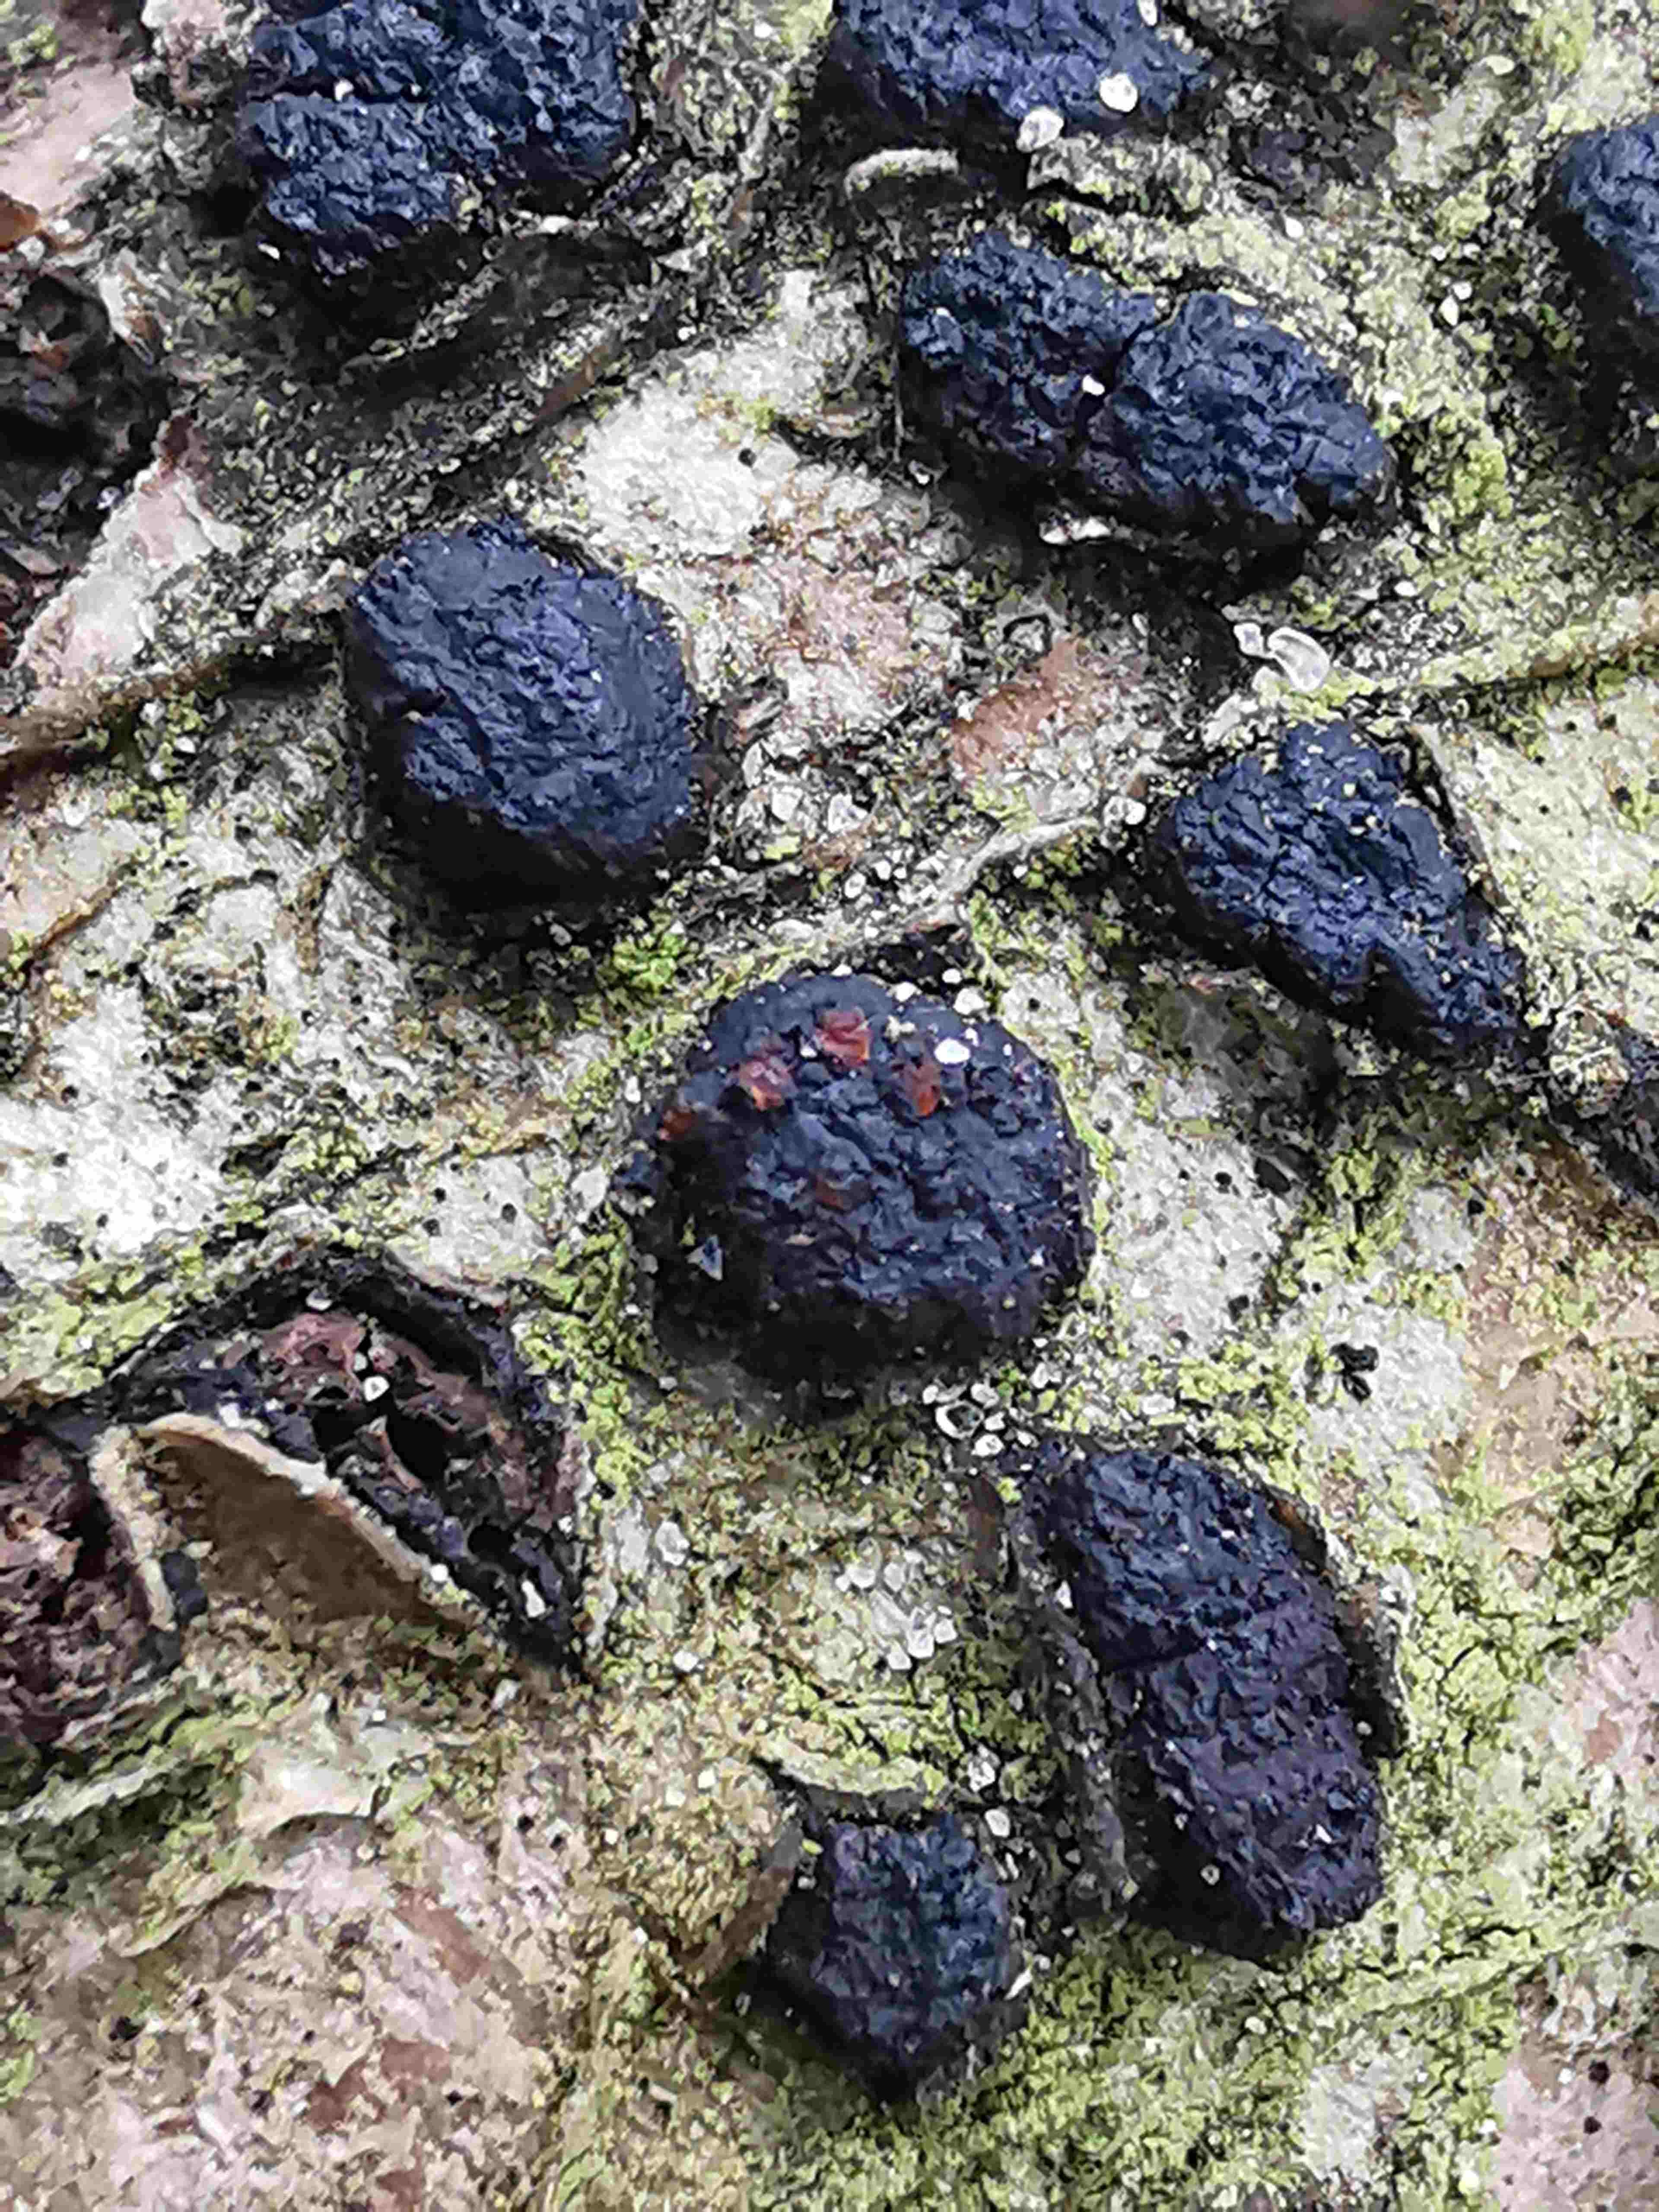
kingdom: Fungi
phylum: Ascomycota
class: Sordariomycetes
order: Xylariales
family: Diatrypaceae
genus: Diatrypella
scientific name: Diatrypella quercina
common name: ege-kulskorpe
